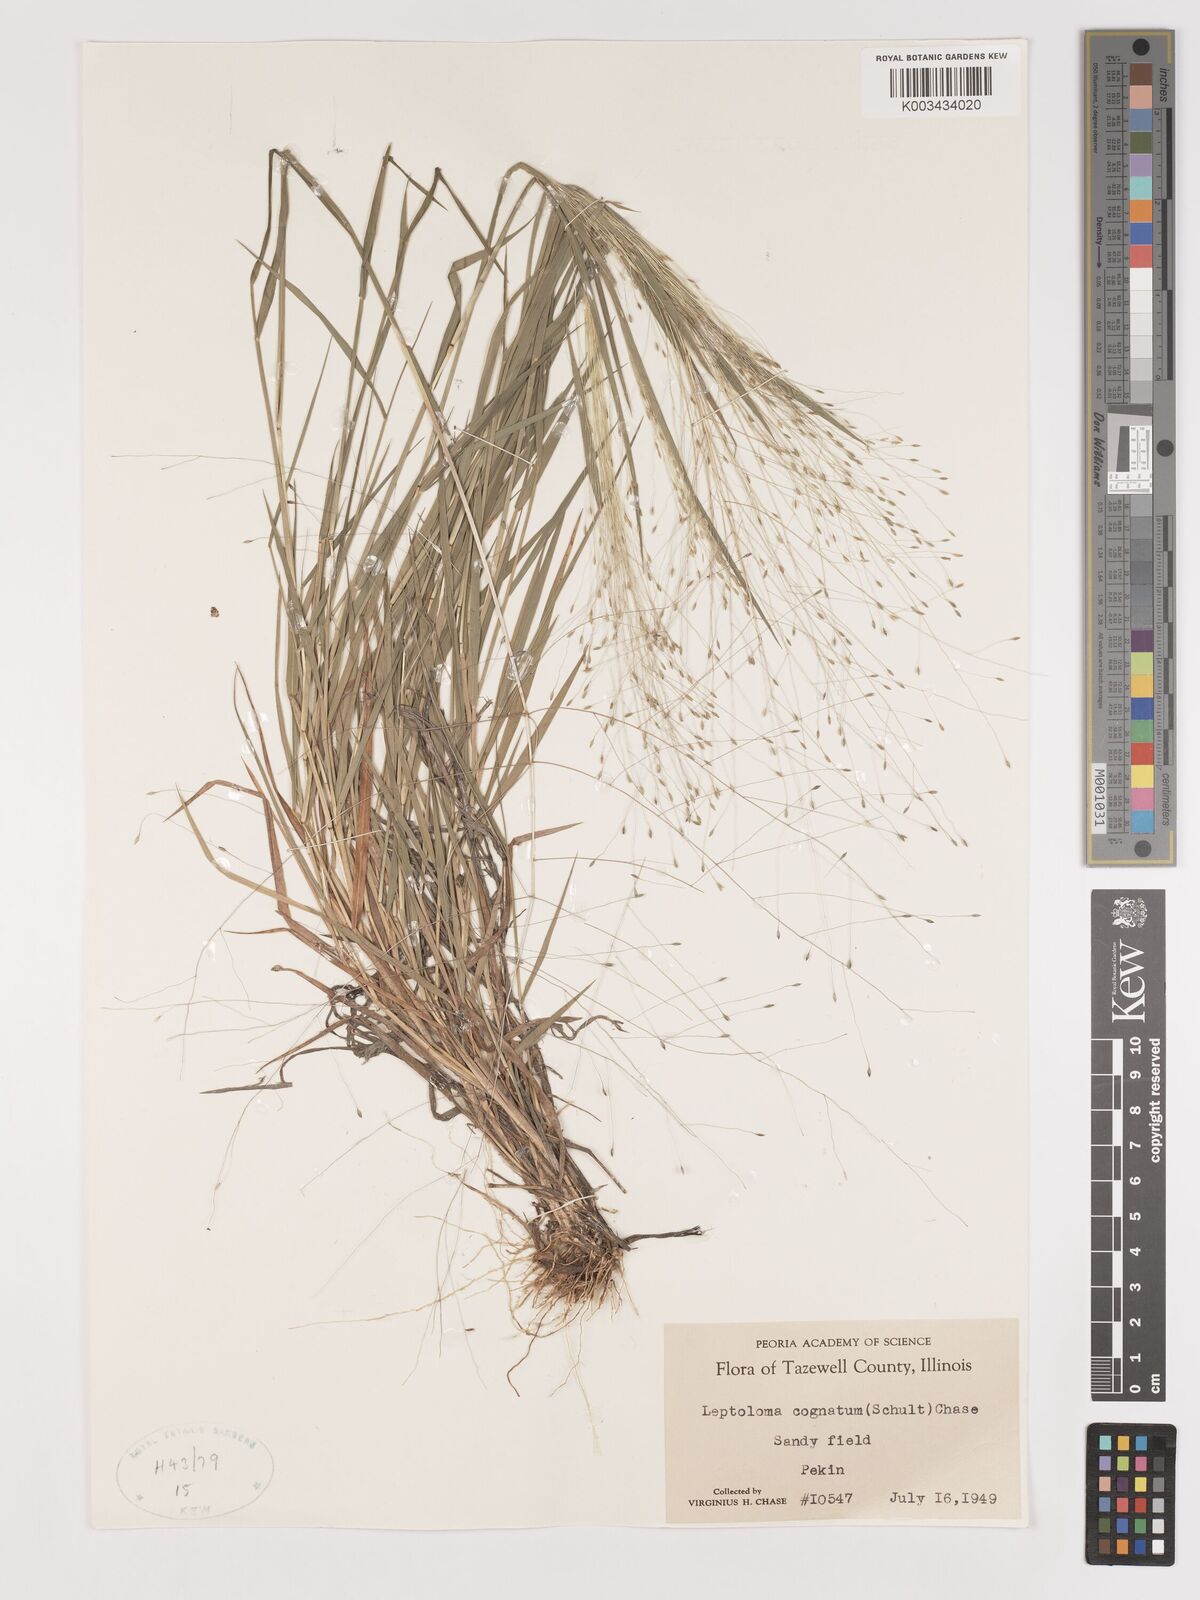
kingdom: Plantae
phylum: Tracheophyta
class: Liliopsida
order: Poales
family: Poaceae
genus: Digitaria
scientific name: Digitaria cognata
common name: Fall witchgrass
